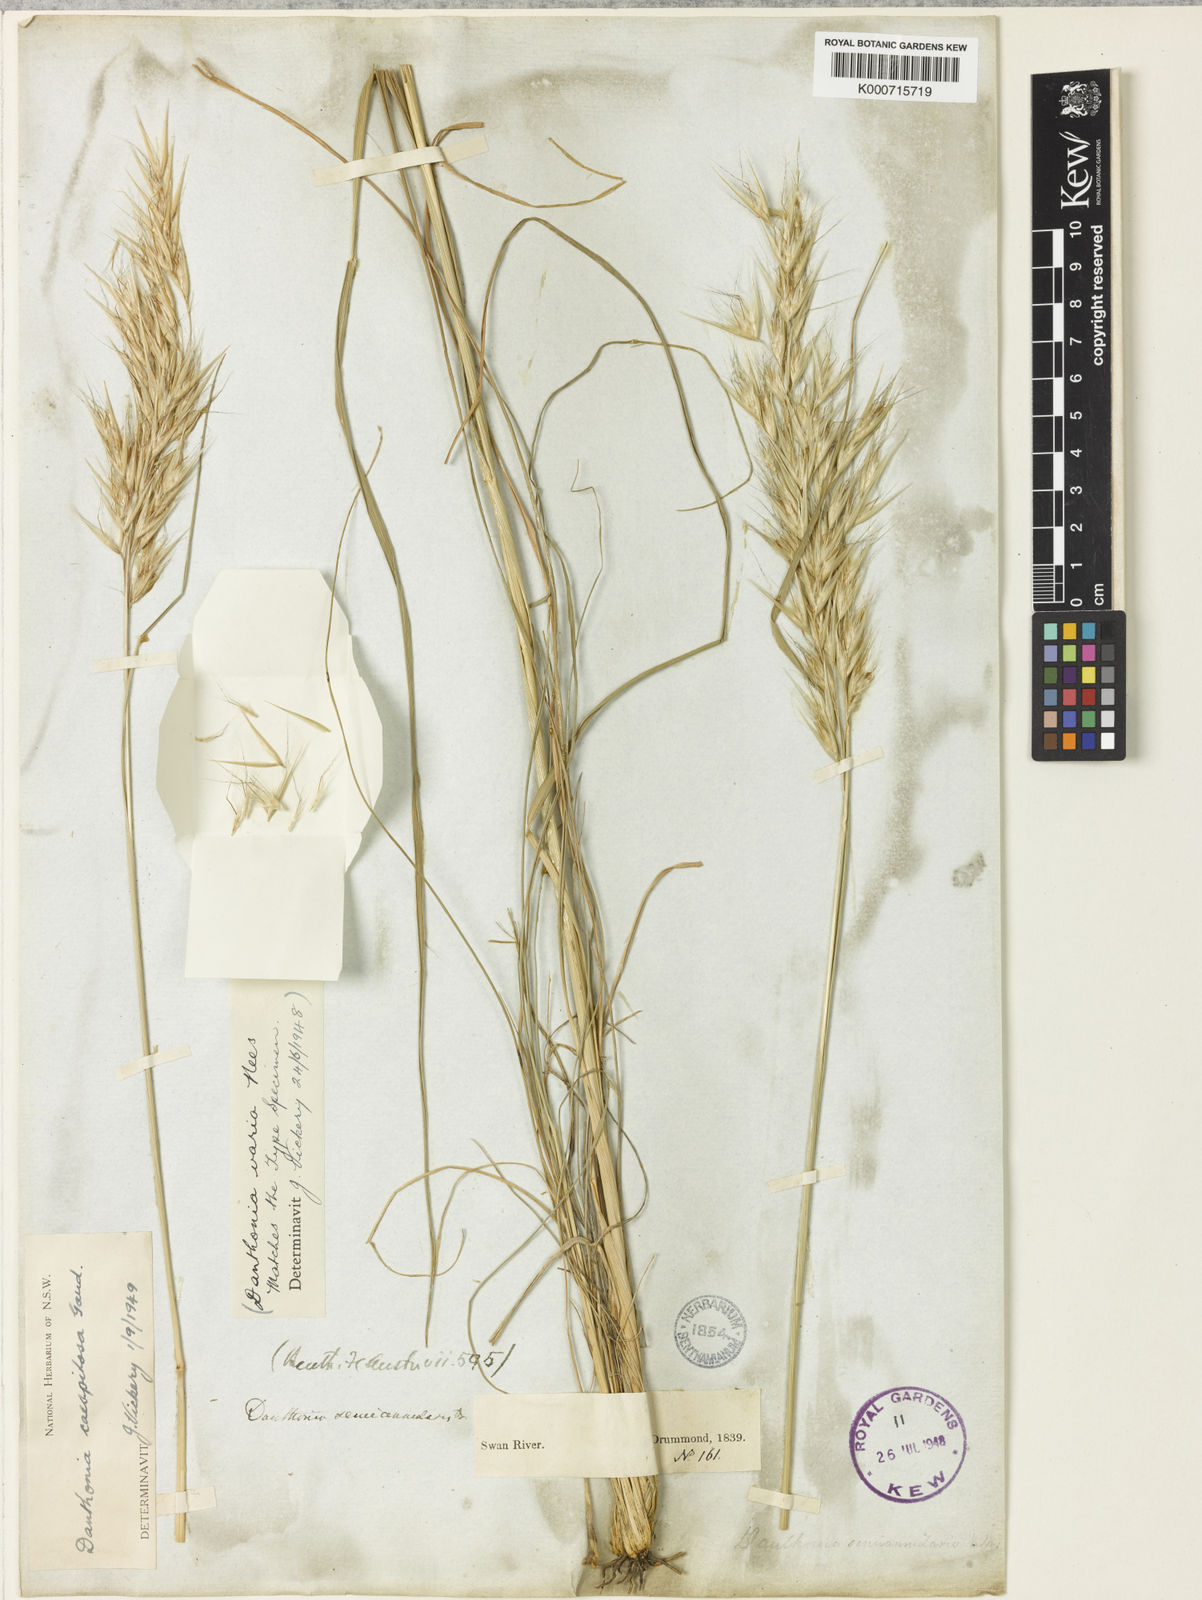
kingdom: Plantae
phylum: Tracheophyta
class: Liliopsida
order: Poales
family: Poaceae
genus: Rytidosperma
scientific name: Rytidosperma caespitosum
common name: Tufted wallaby grass
